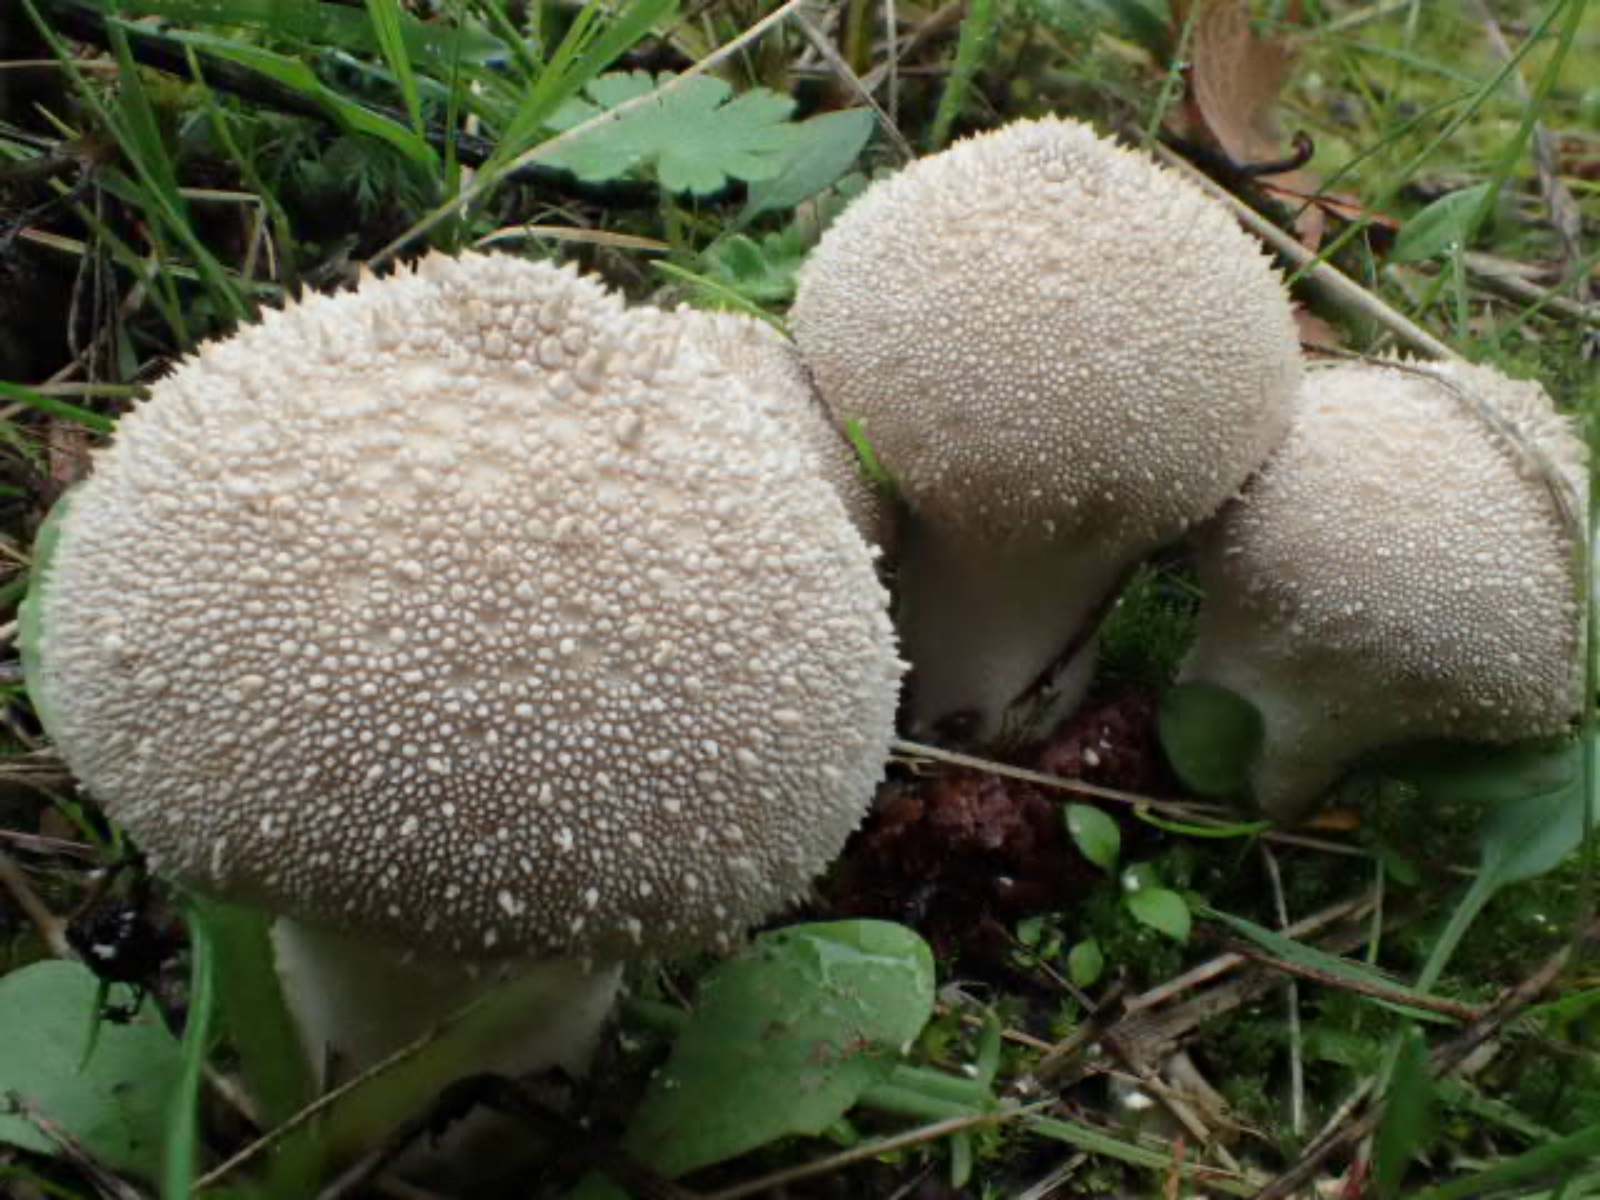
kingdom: Fungi
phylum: Basidiomycota
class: Agaricomycetes
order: Agaricales
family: Lycoperdaceae
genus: Lycoperdon
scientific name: Lycoperdon perlatum
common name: krystal-støvbold
